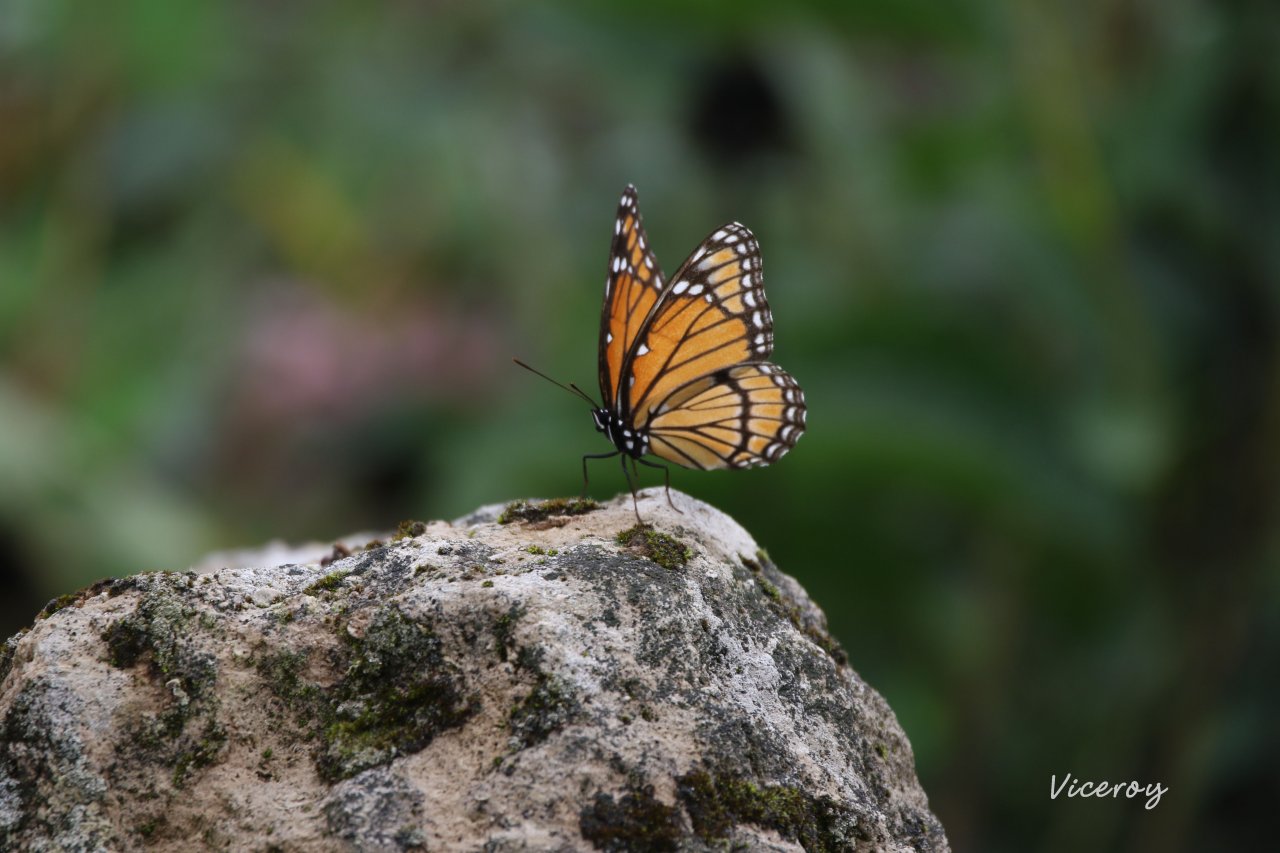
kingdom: Animalia
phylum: Arthropoda
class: Insecta
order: Lepidoptera
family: Nymphalidae
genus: Limenitis
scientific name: Limenitis archippus
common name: Viceroy
